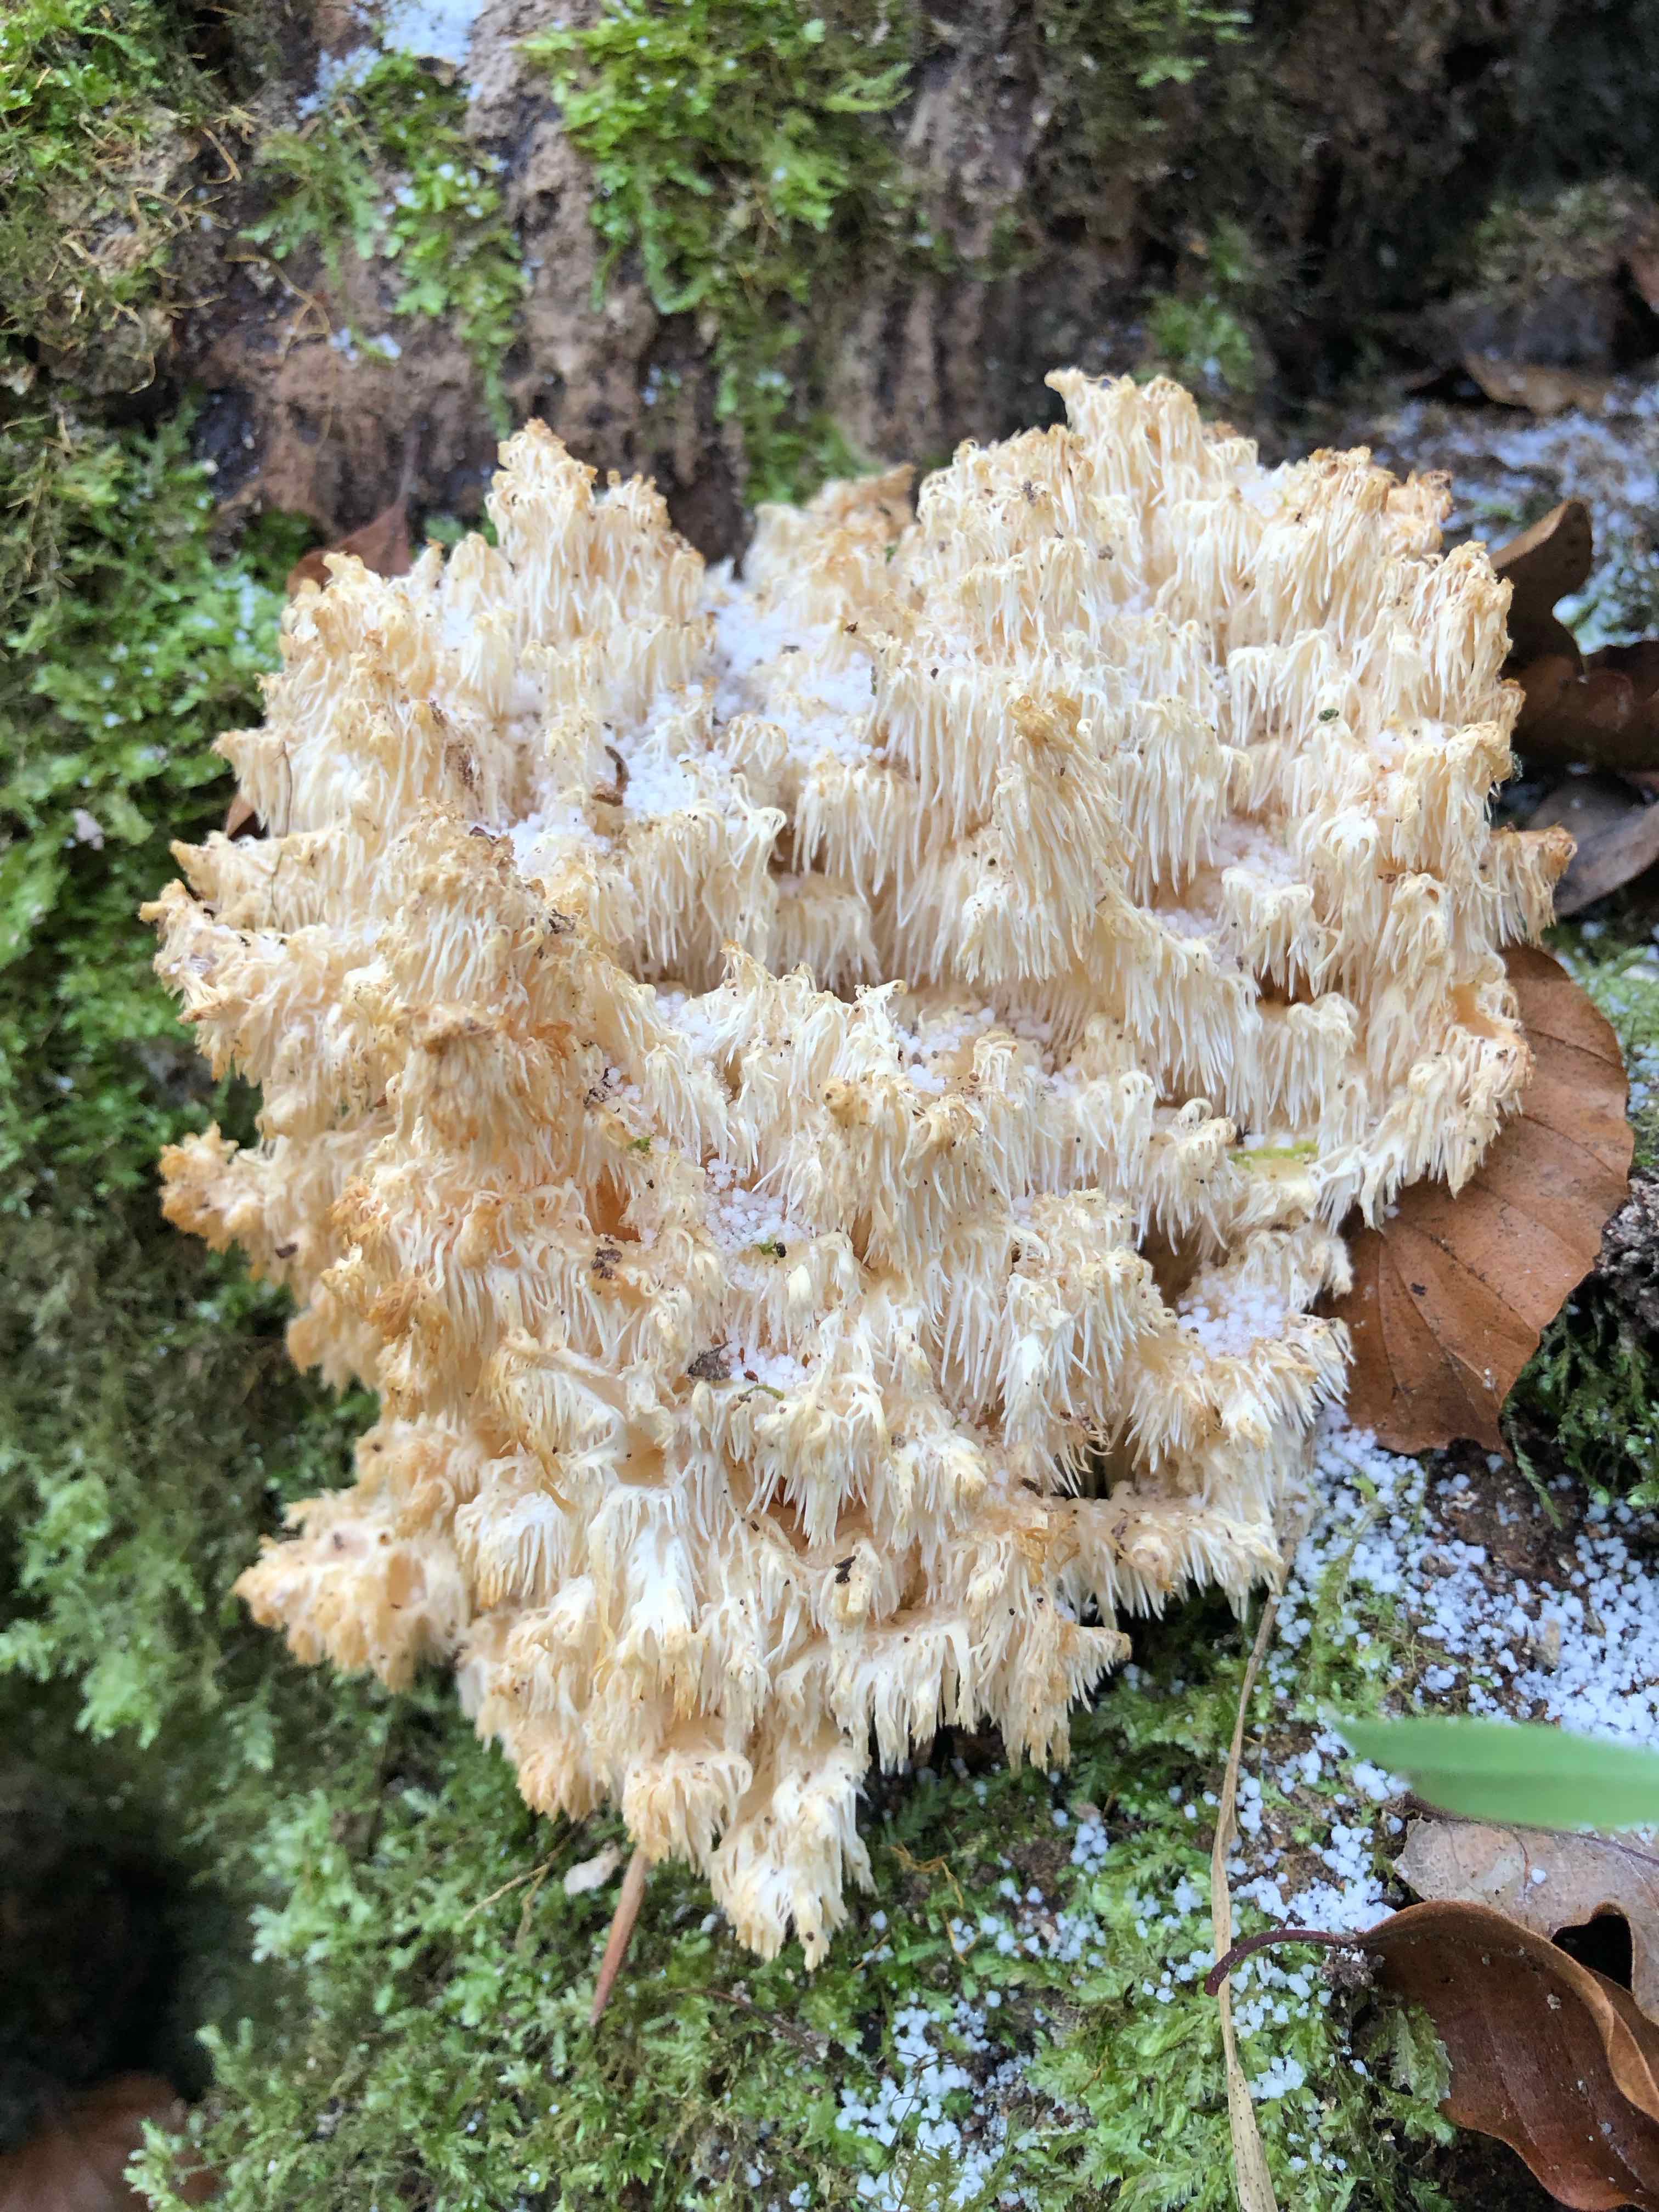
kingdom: Fungi
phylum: Basidiomycota
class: Agaricomycetes
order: Russulales
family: Hericiaceae
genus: Hericium
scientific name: Hericium coralloides
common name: koralpigsvamp
